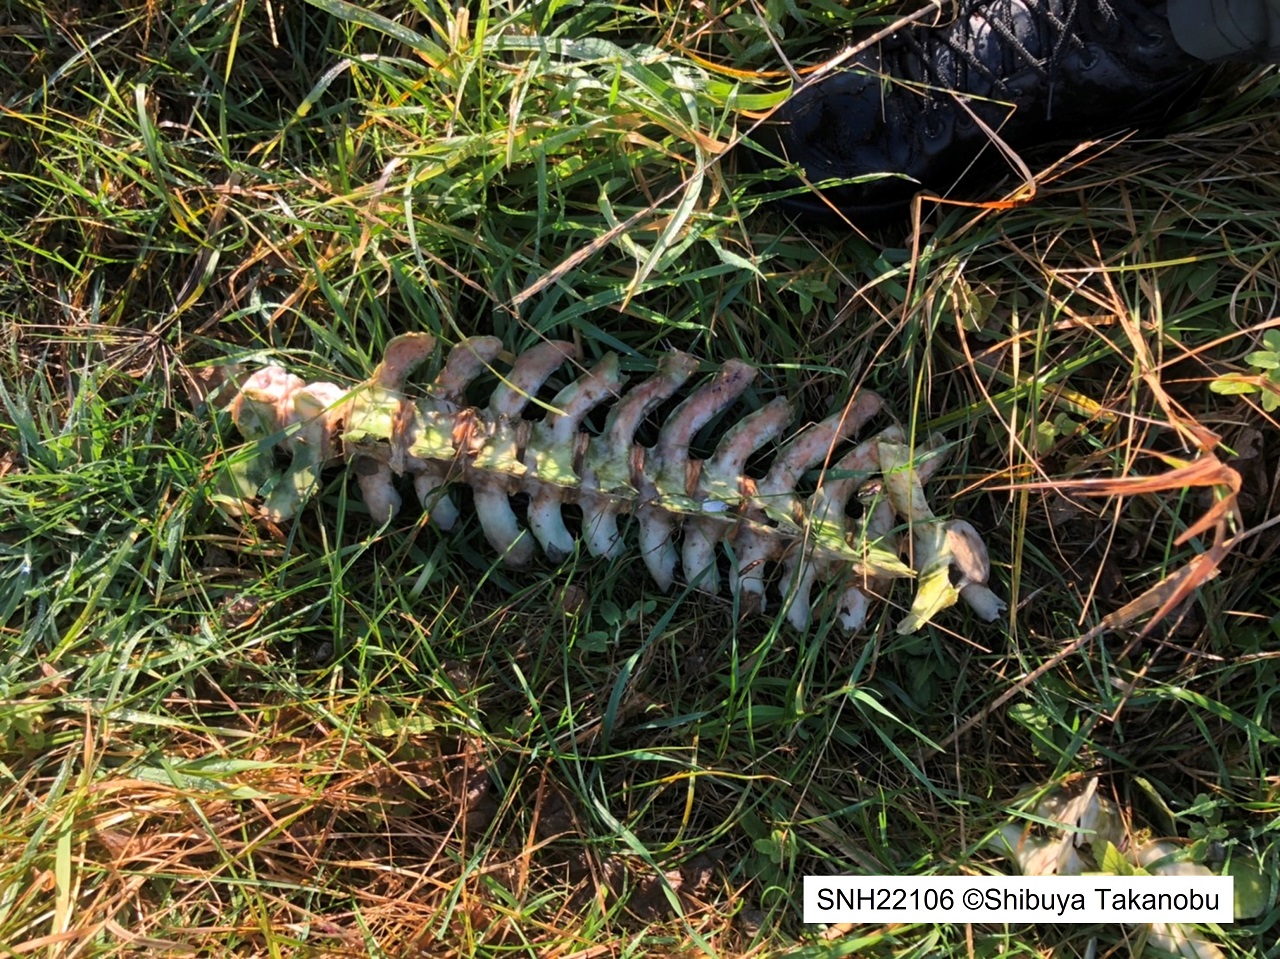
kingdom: Animalia
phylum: Chordata
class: Mammalia
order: Cetacea
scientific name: Cetacea
